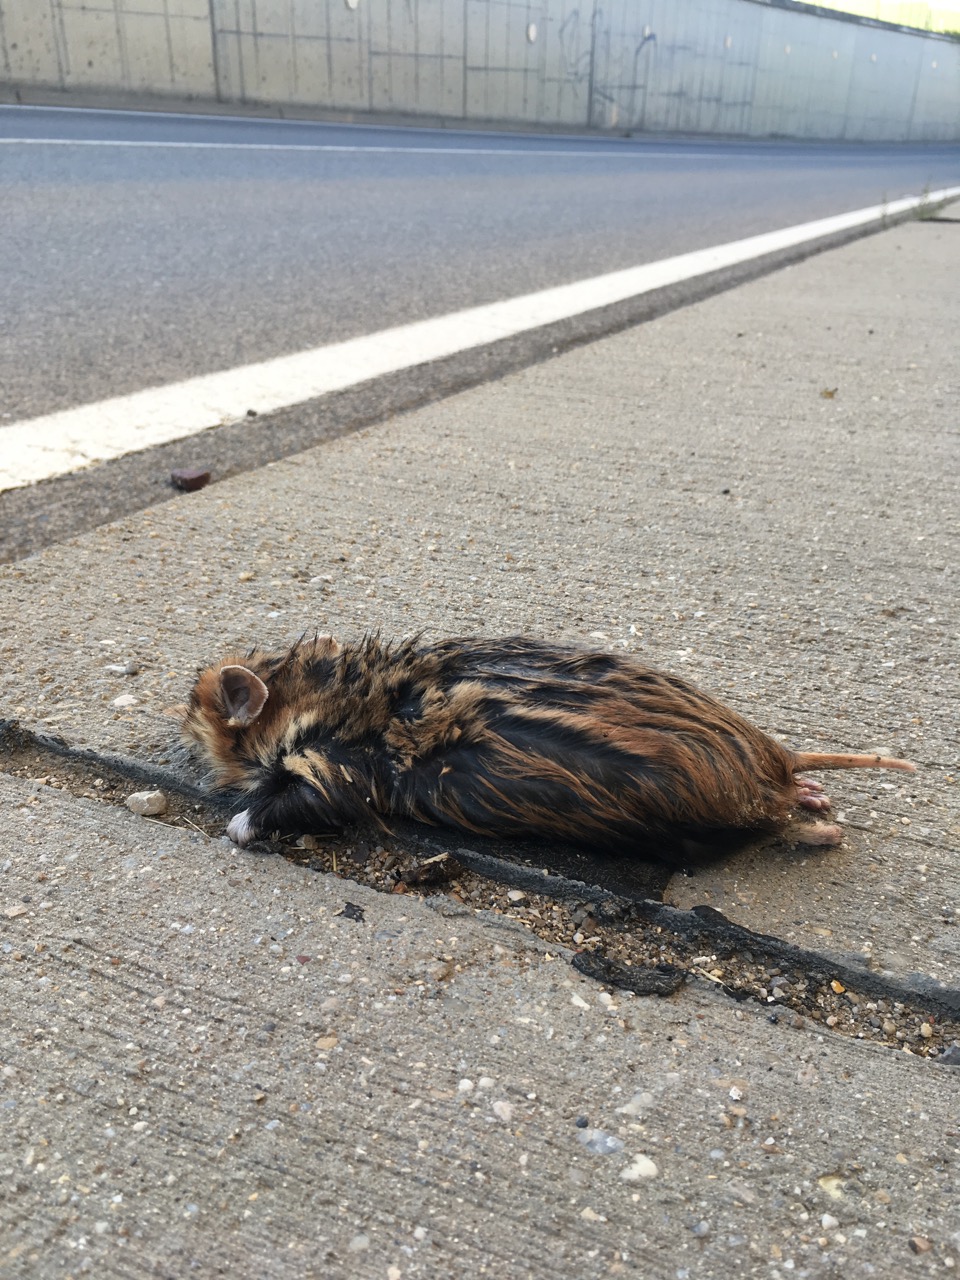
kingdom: Animalia
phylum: Chordata
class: Mammalia
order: Rodentia
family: Cricetidae
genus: Cricetus
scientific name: Cricetus cricetus
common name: Common hamster
